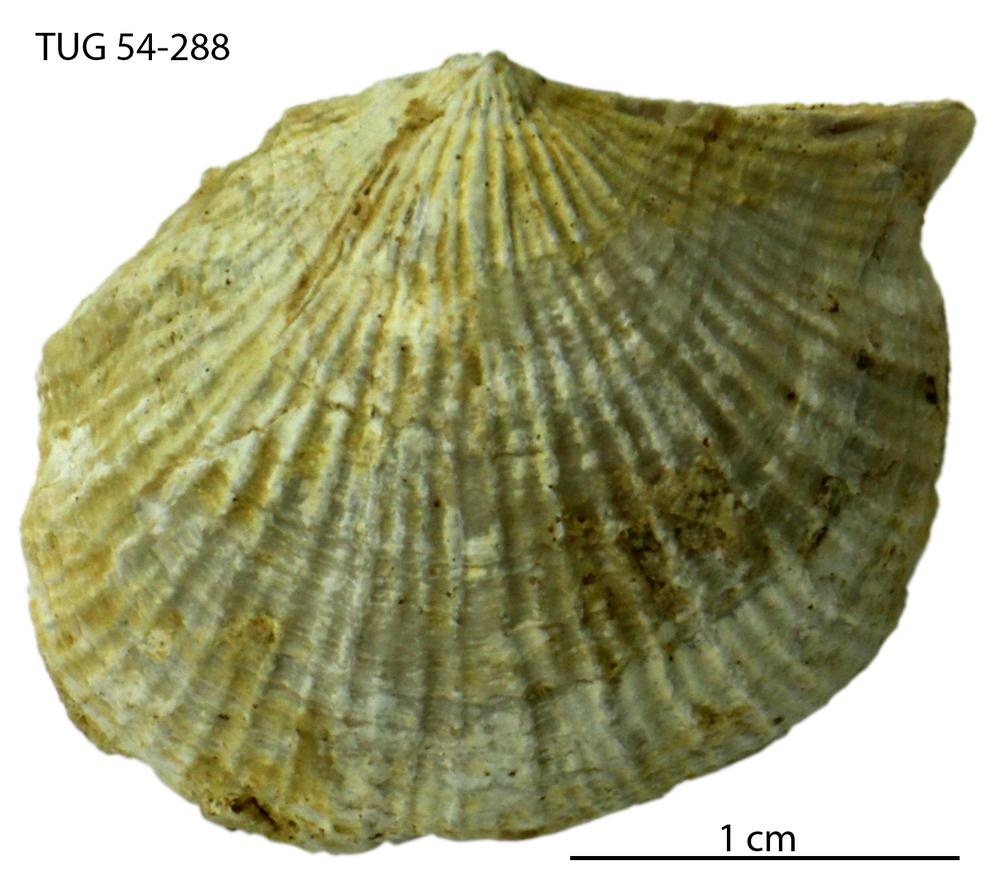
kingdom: Animalia
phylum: Brachiopoda
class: Rhynchonellata
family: Clitambonitidae
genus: Vellamo
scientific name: Vellamo Orthis verneuili
